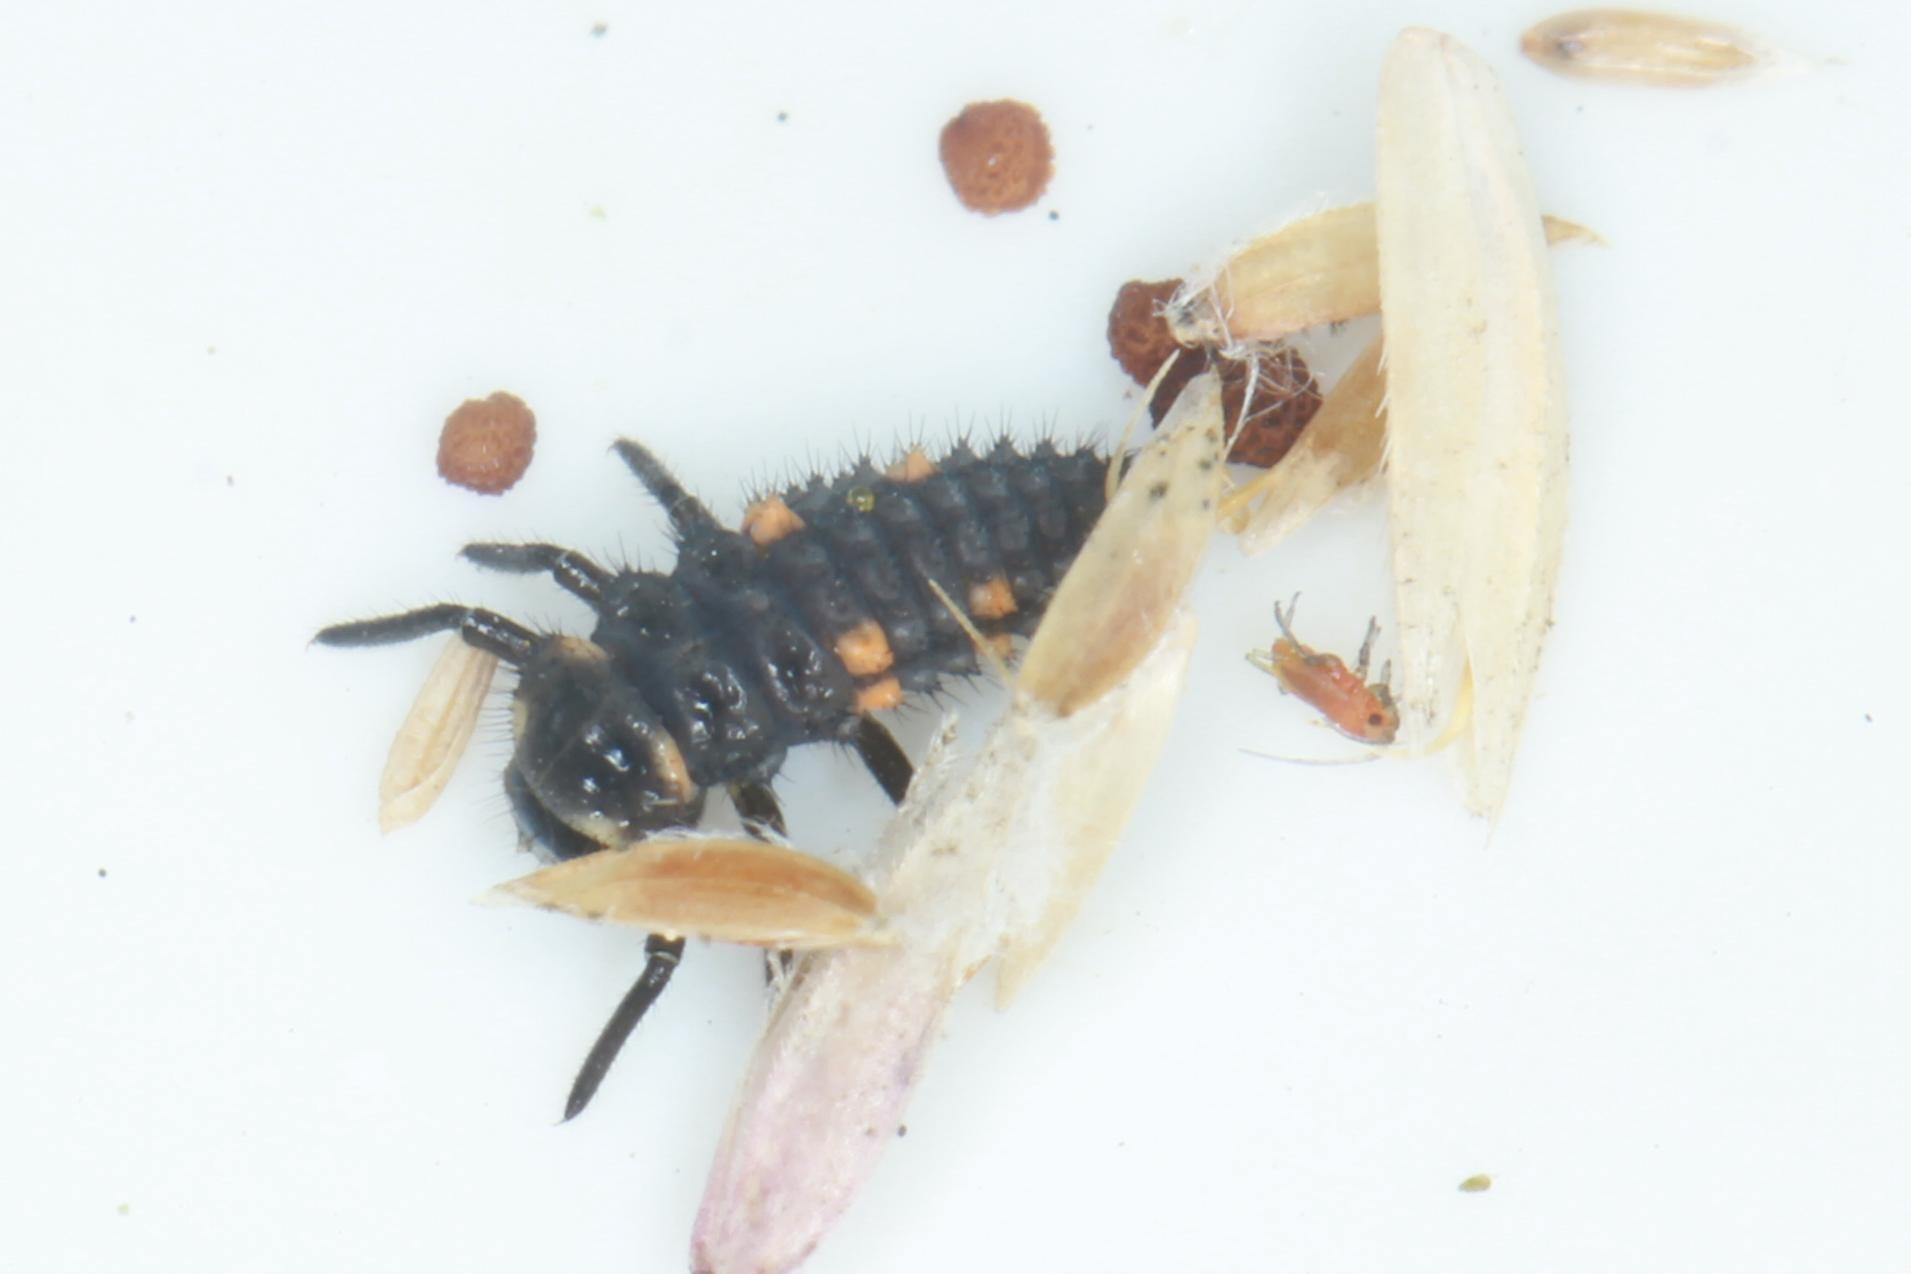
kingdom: Animalia
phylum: Arthropoda
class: Insecta
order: Coleoptera
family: Coccinellidae
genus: Coccinella
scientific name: Coccinella septempunctata
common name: Syvplettet mariehøne
